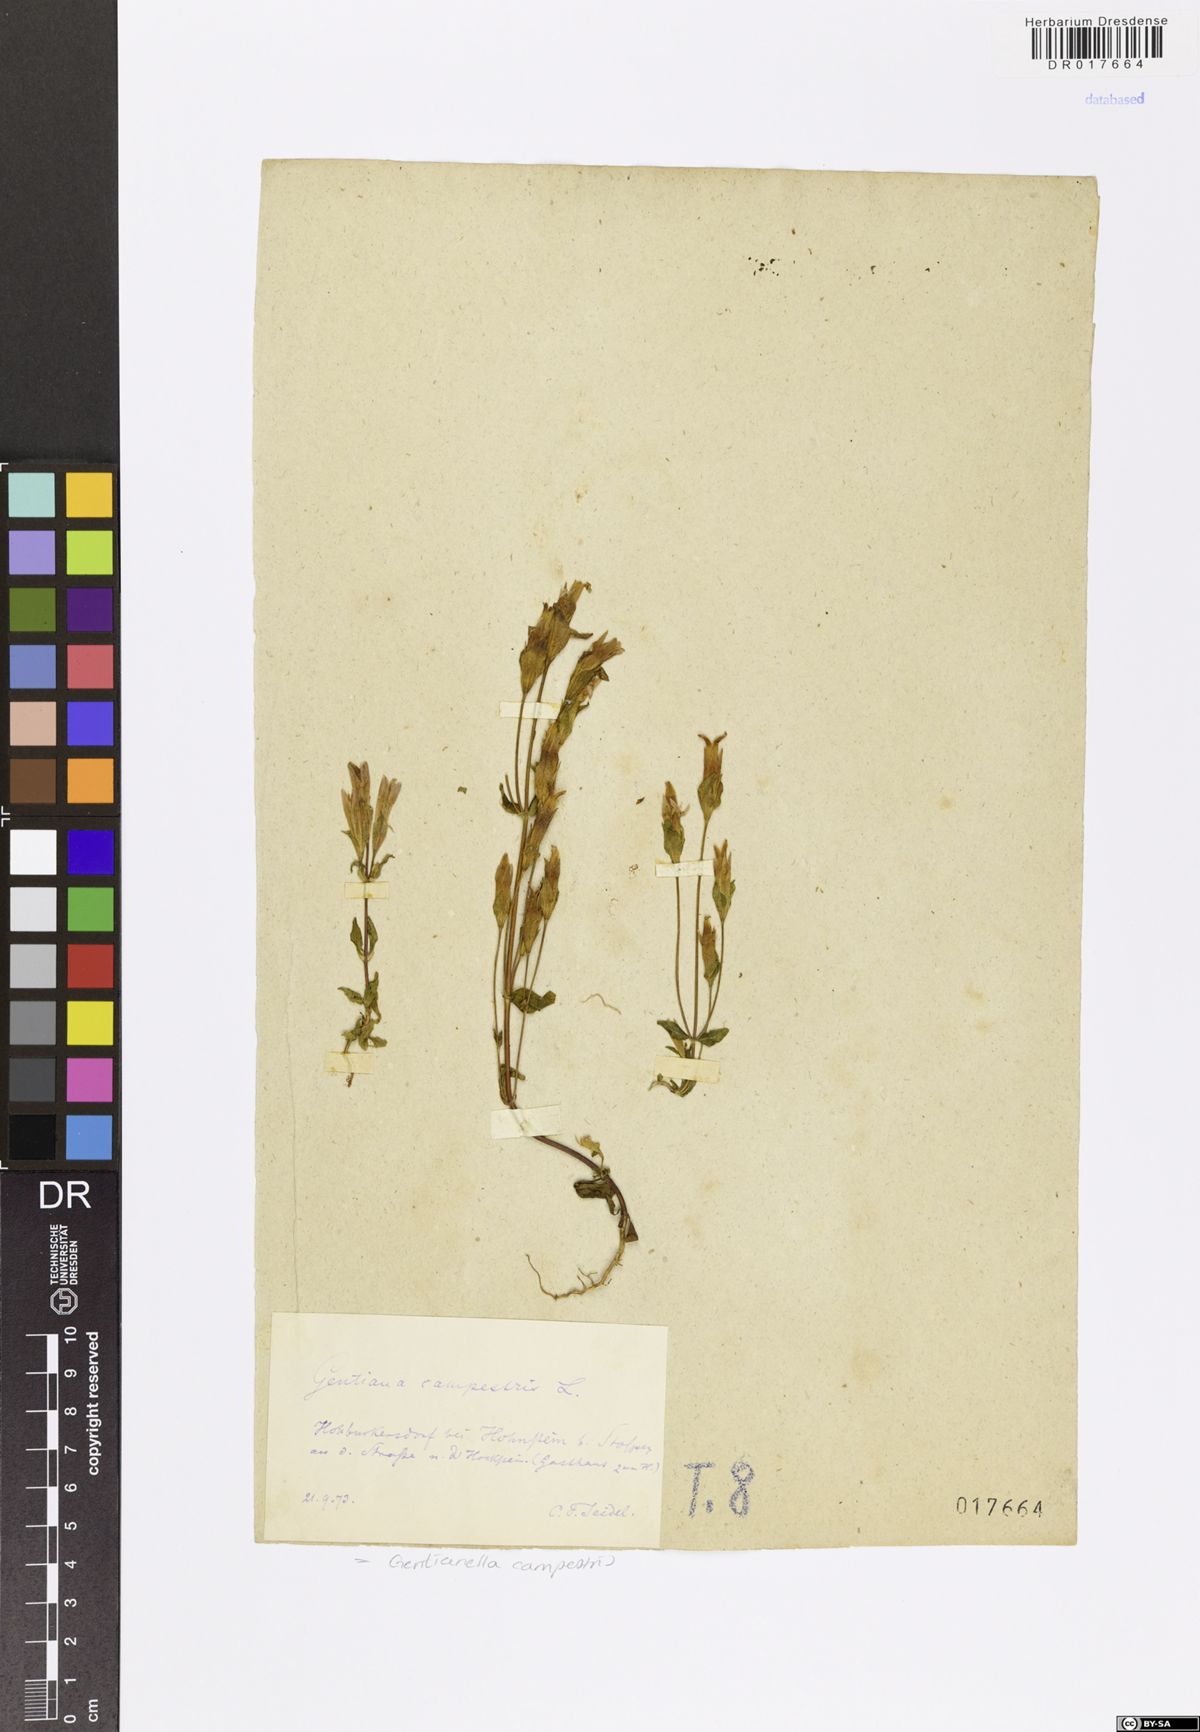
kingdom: Plantae
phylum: Tracheophyta
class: Magnoliopsida
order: Gentianales
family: Gentianaceae
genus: Gentianella
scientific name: Gentianella campestris
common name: Field gentian
